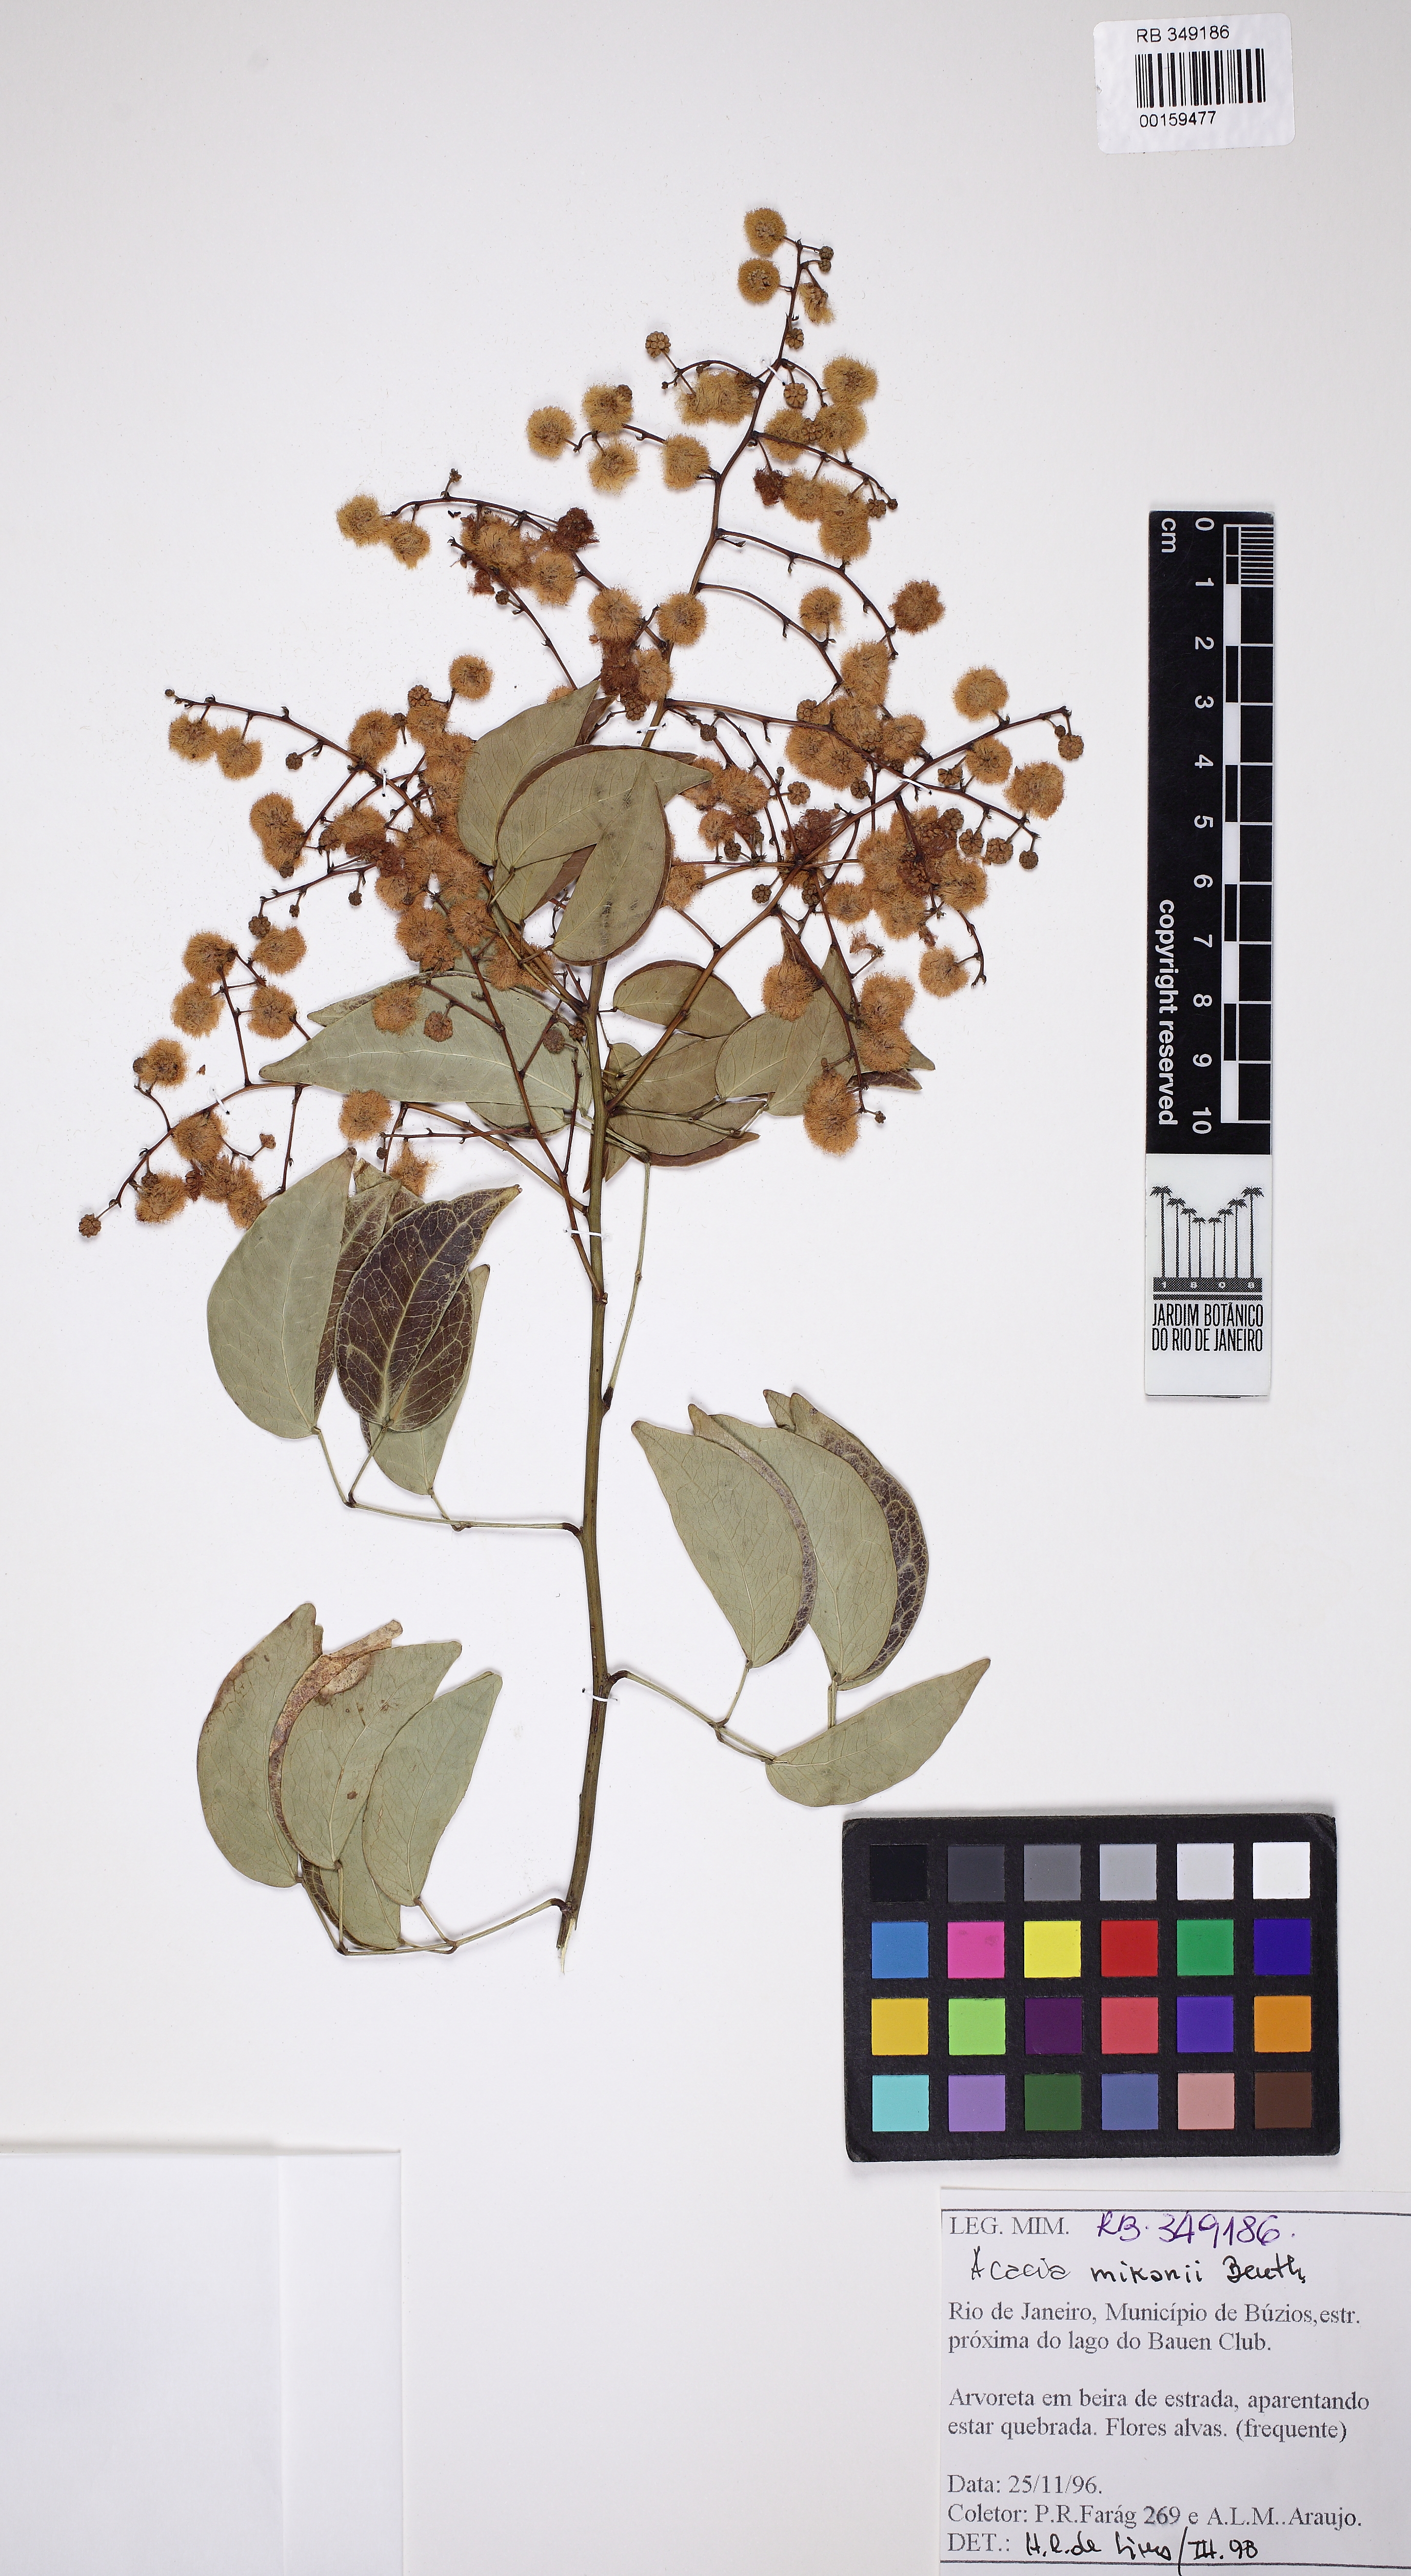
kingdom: Plantae
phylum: Tracheophyta
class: Magnoliopsida
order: Fabales
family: Fabaceae
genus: Parasenegalia
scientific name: Parasenegalia miersii
